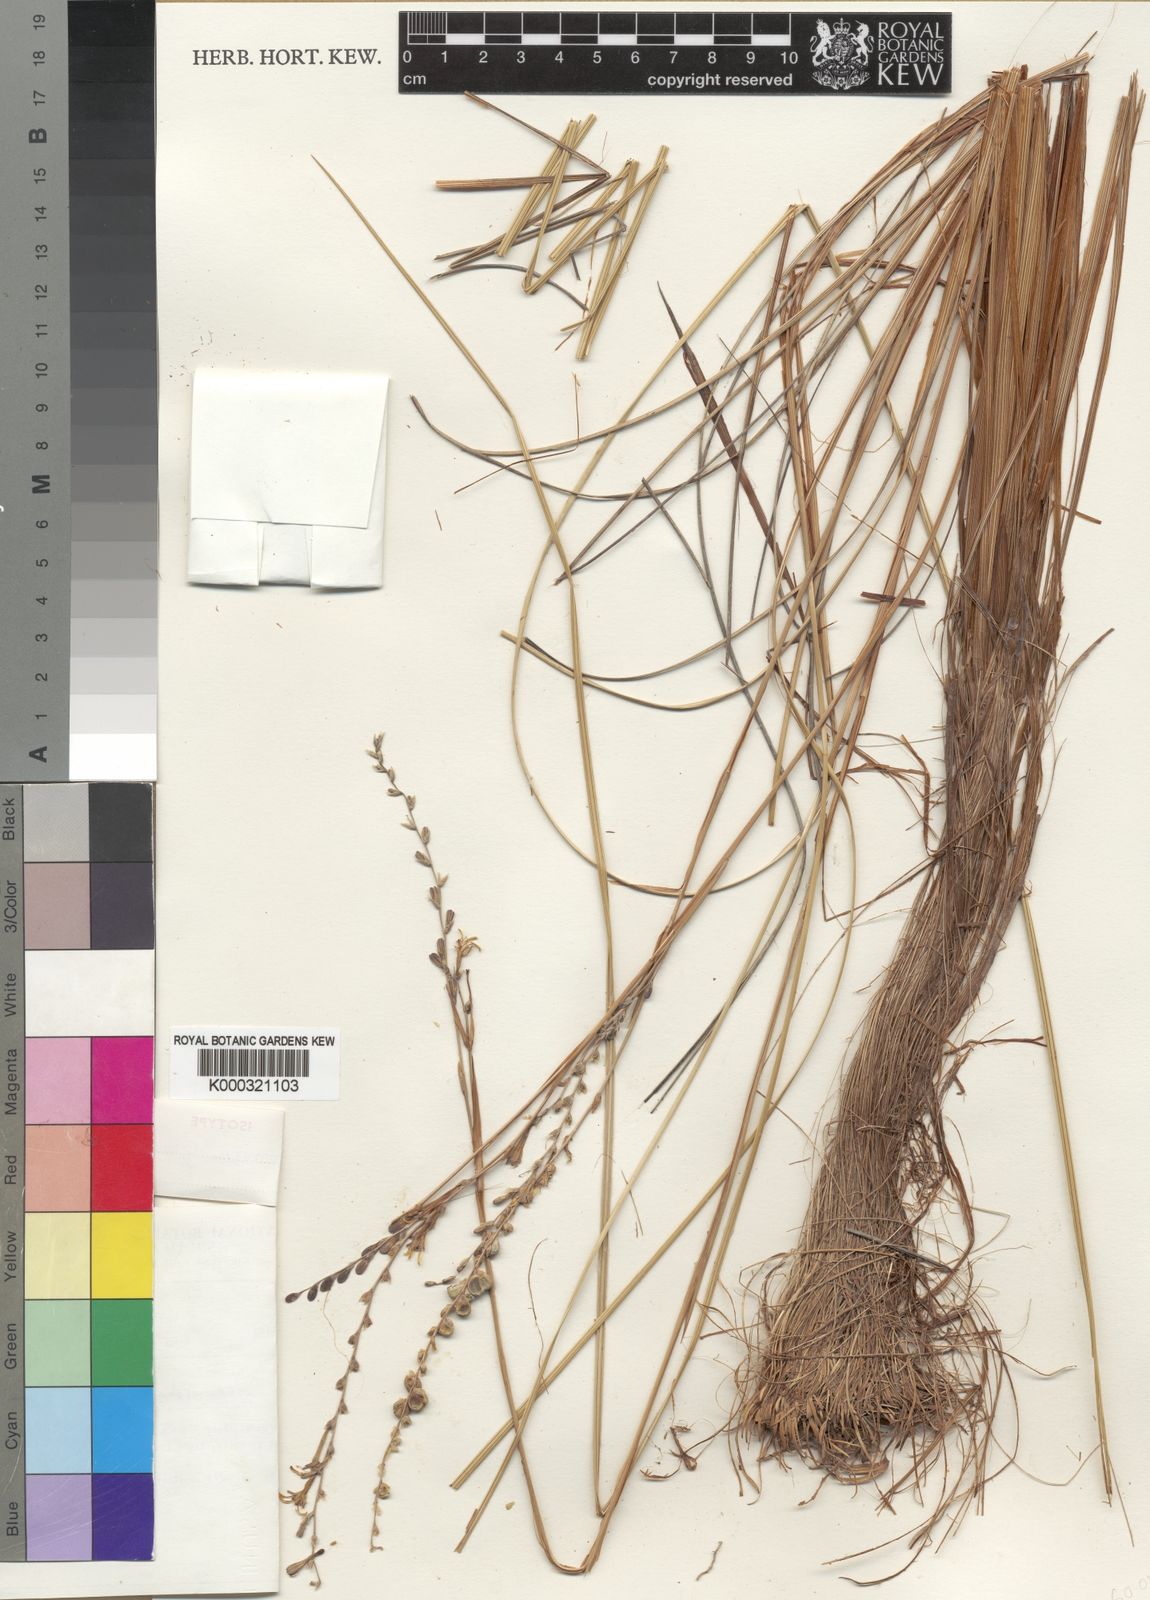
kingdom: Plantae
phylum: Tracheophyta
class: Liliopsida
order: Asparagales
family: Iridaceae
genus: Tritonia
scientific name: Tritonia
